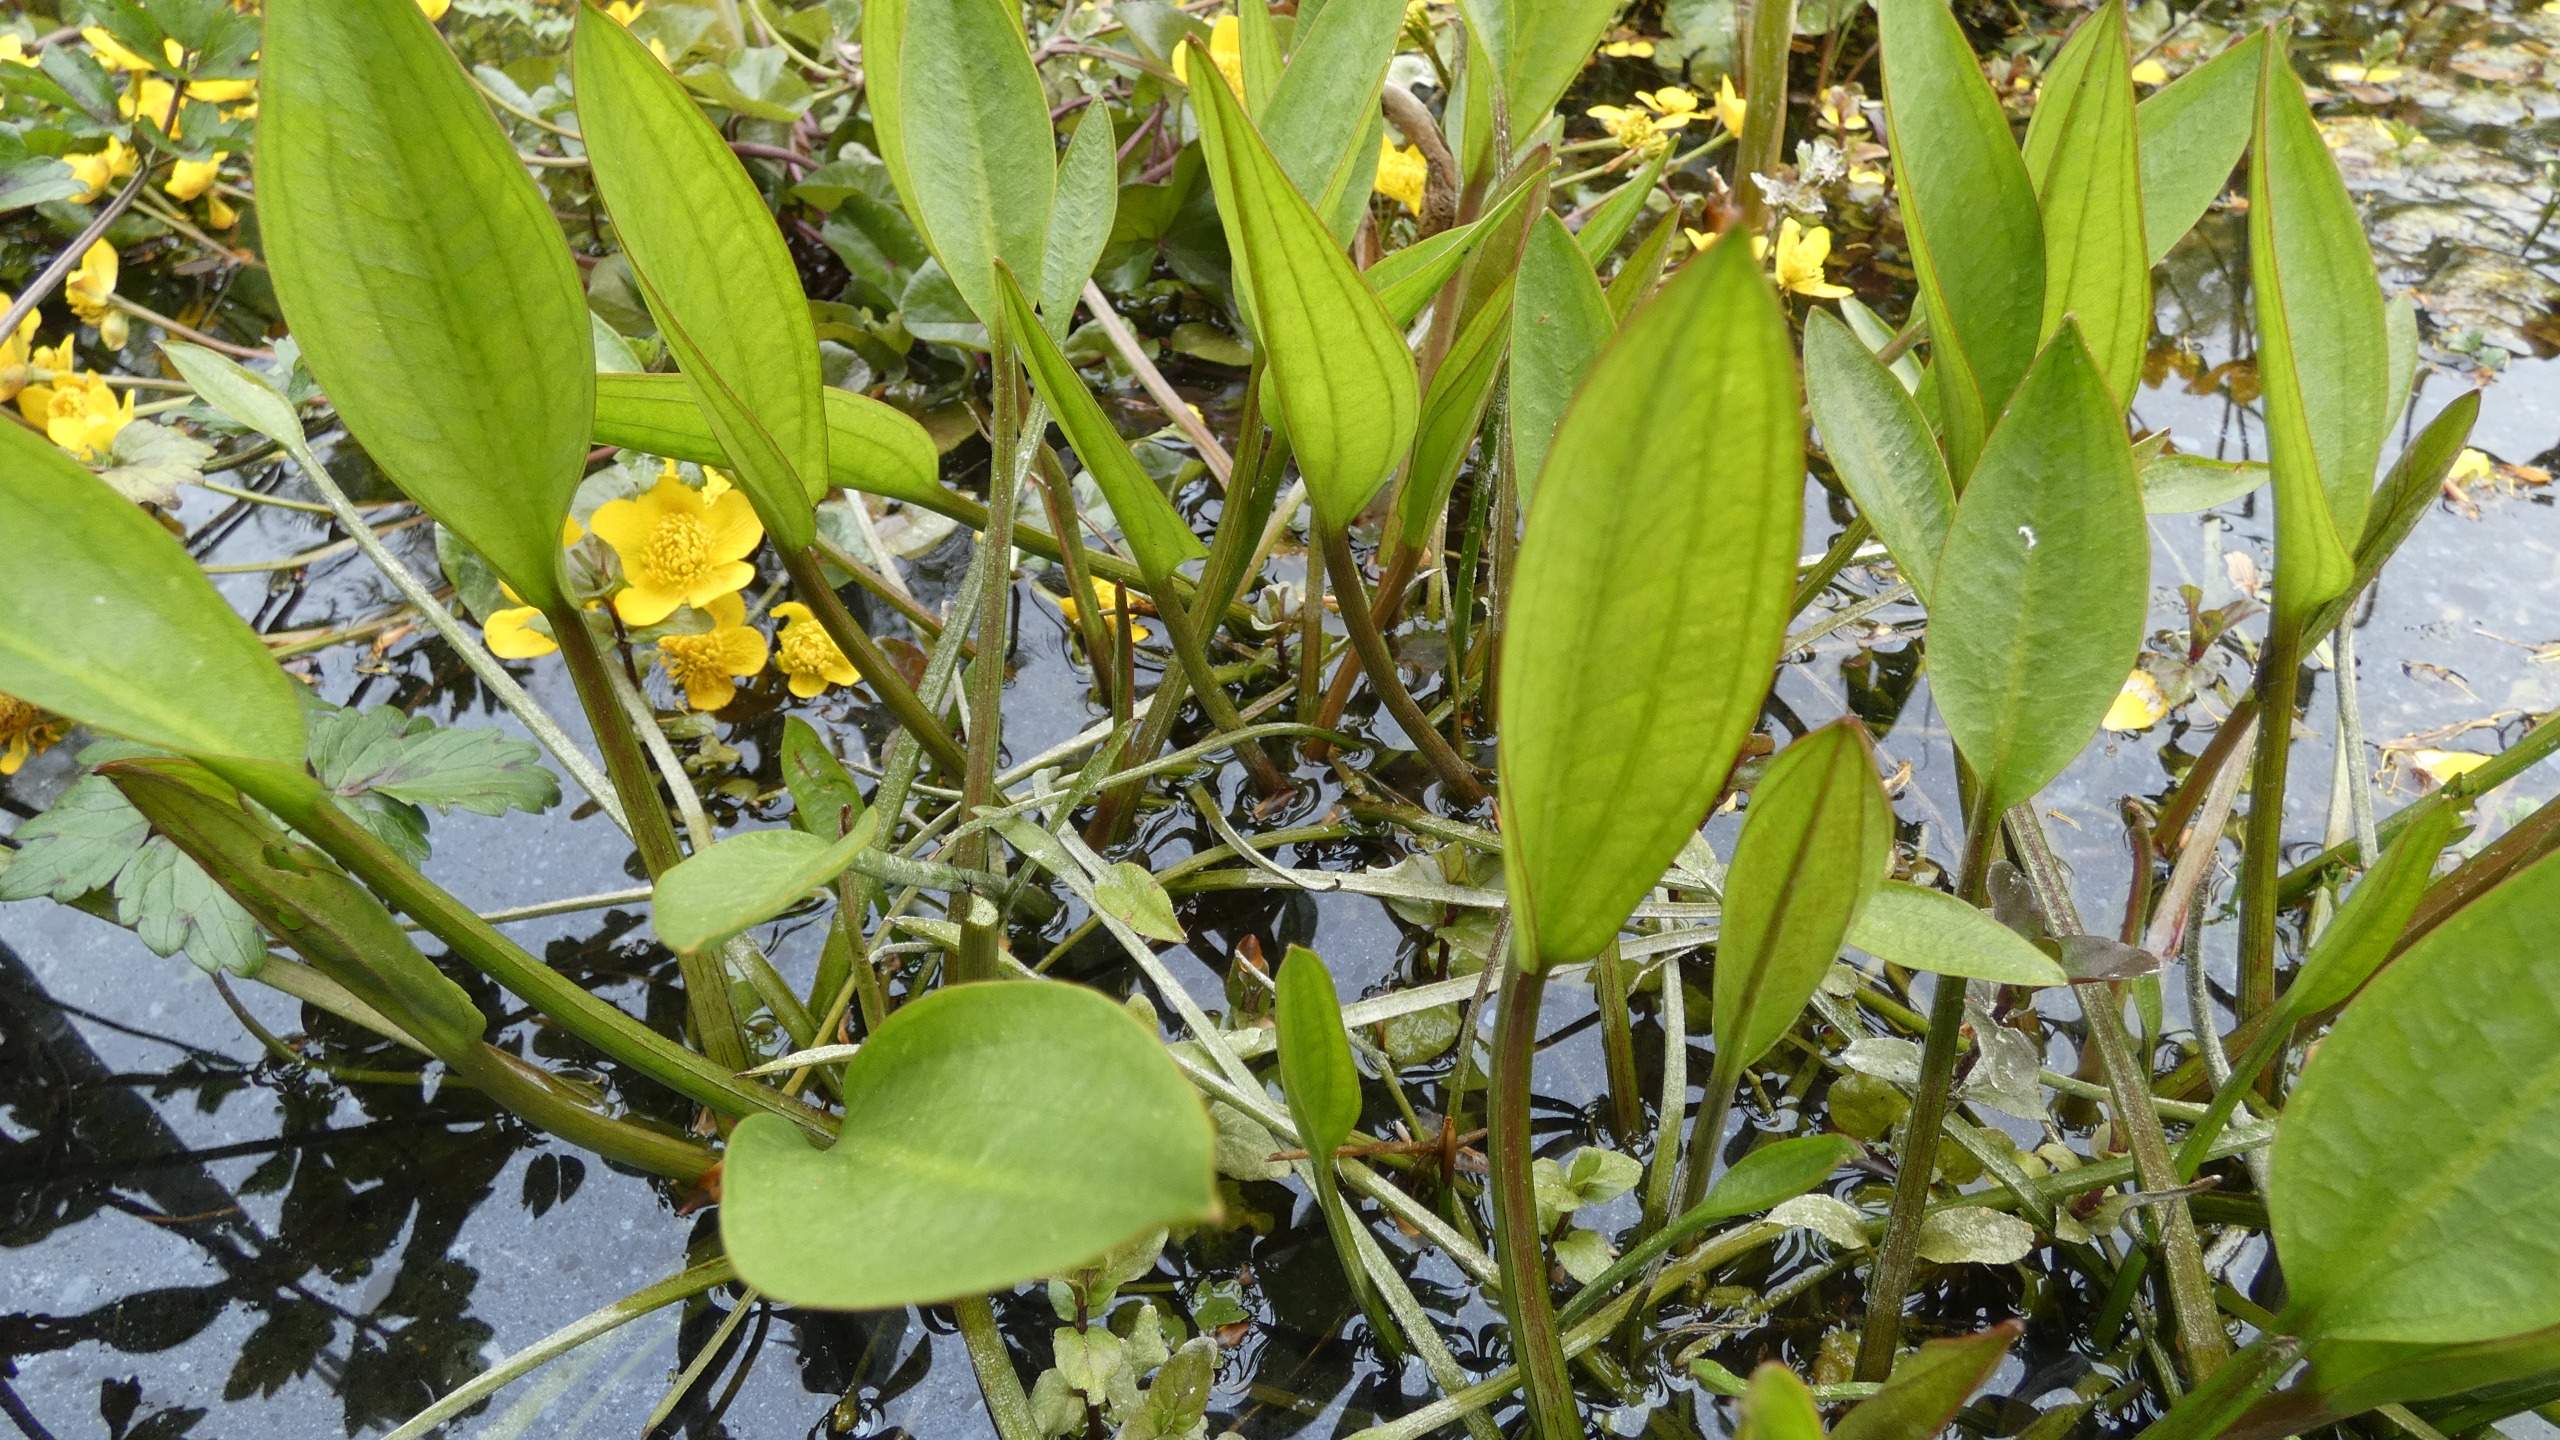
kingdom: Plantae
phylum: Tracheophyta
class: Liliopsida
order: Alismatales
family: Alismataceae
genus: Alisma
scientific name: Alisma plantago-aquatica
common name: Vejbred-skeblad
